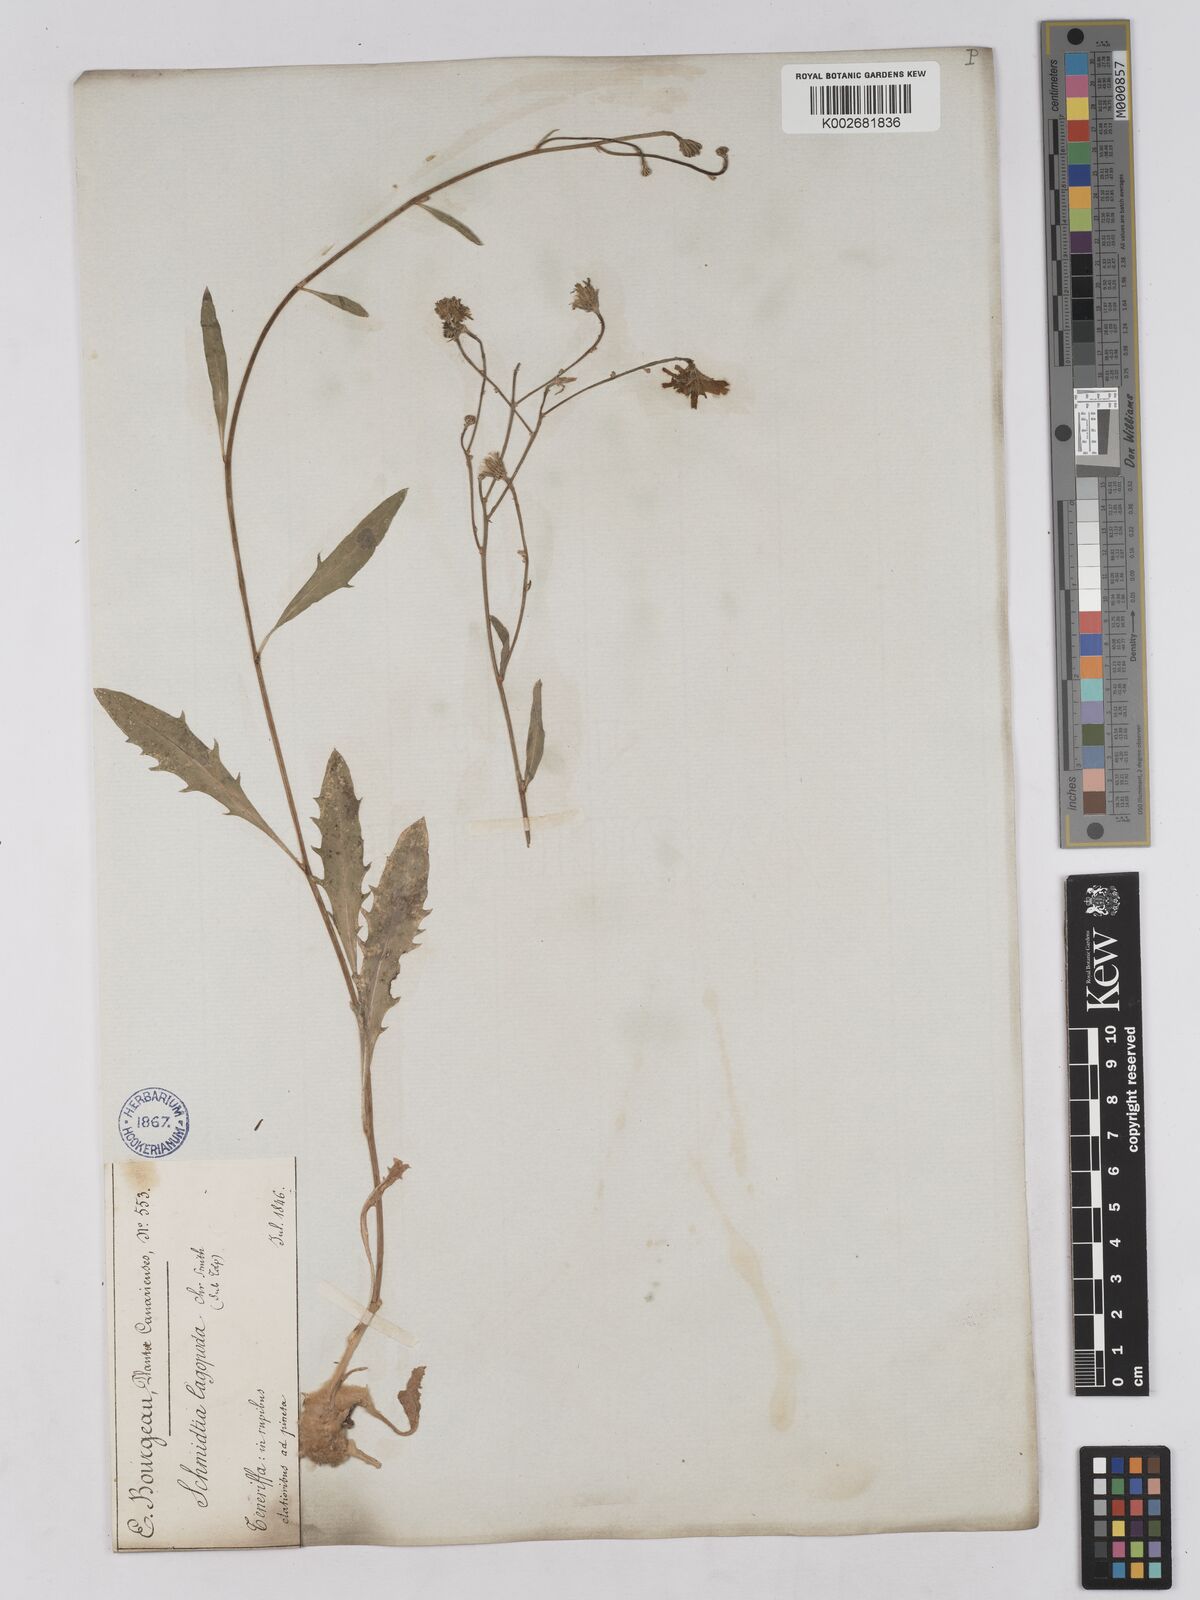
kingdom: Plantae
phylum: Tracheophyta
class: Magnoliopsida
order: Asterales
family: Asteraceae
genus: Tolpis
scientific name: Tolpis lagopoda
